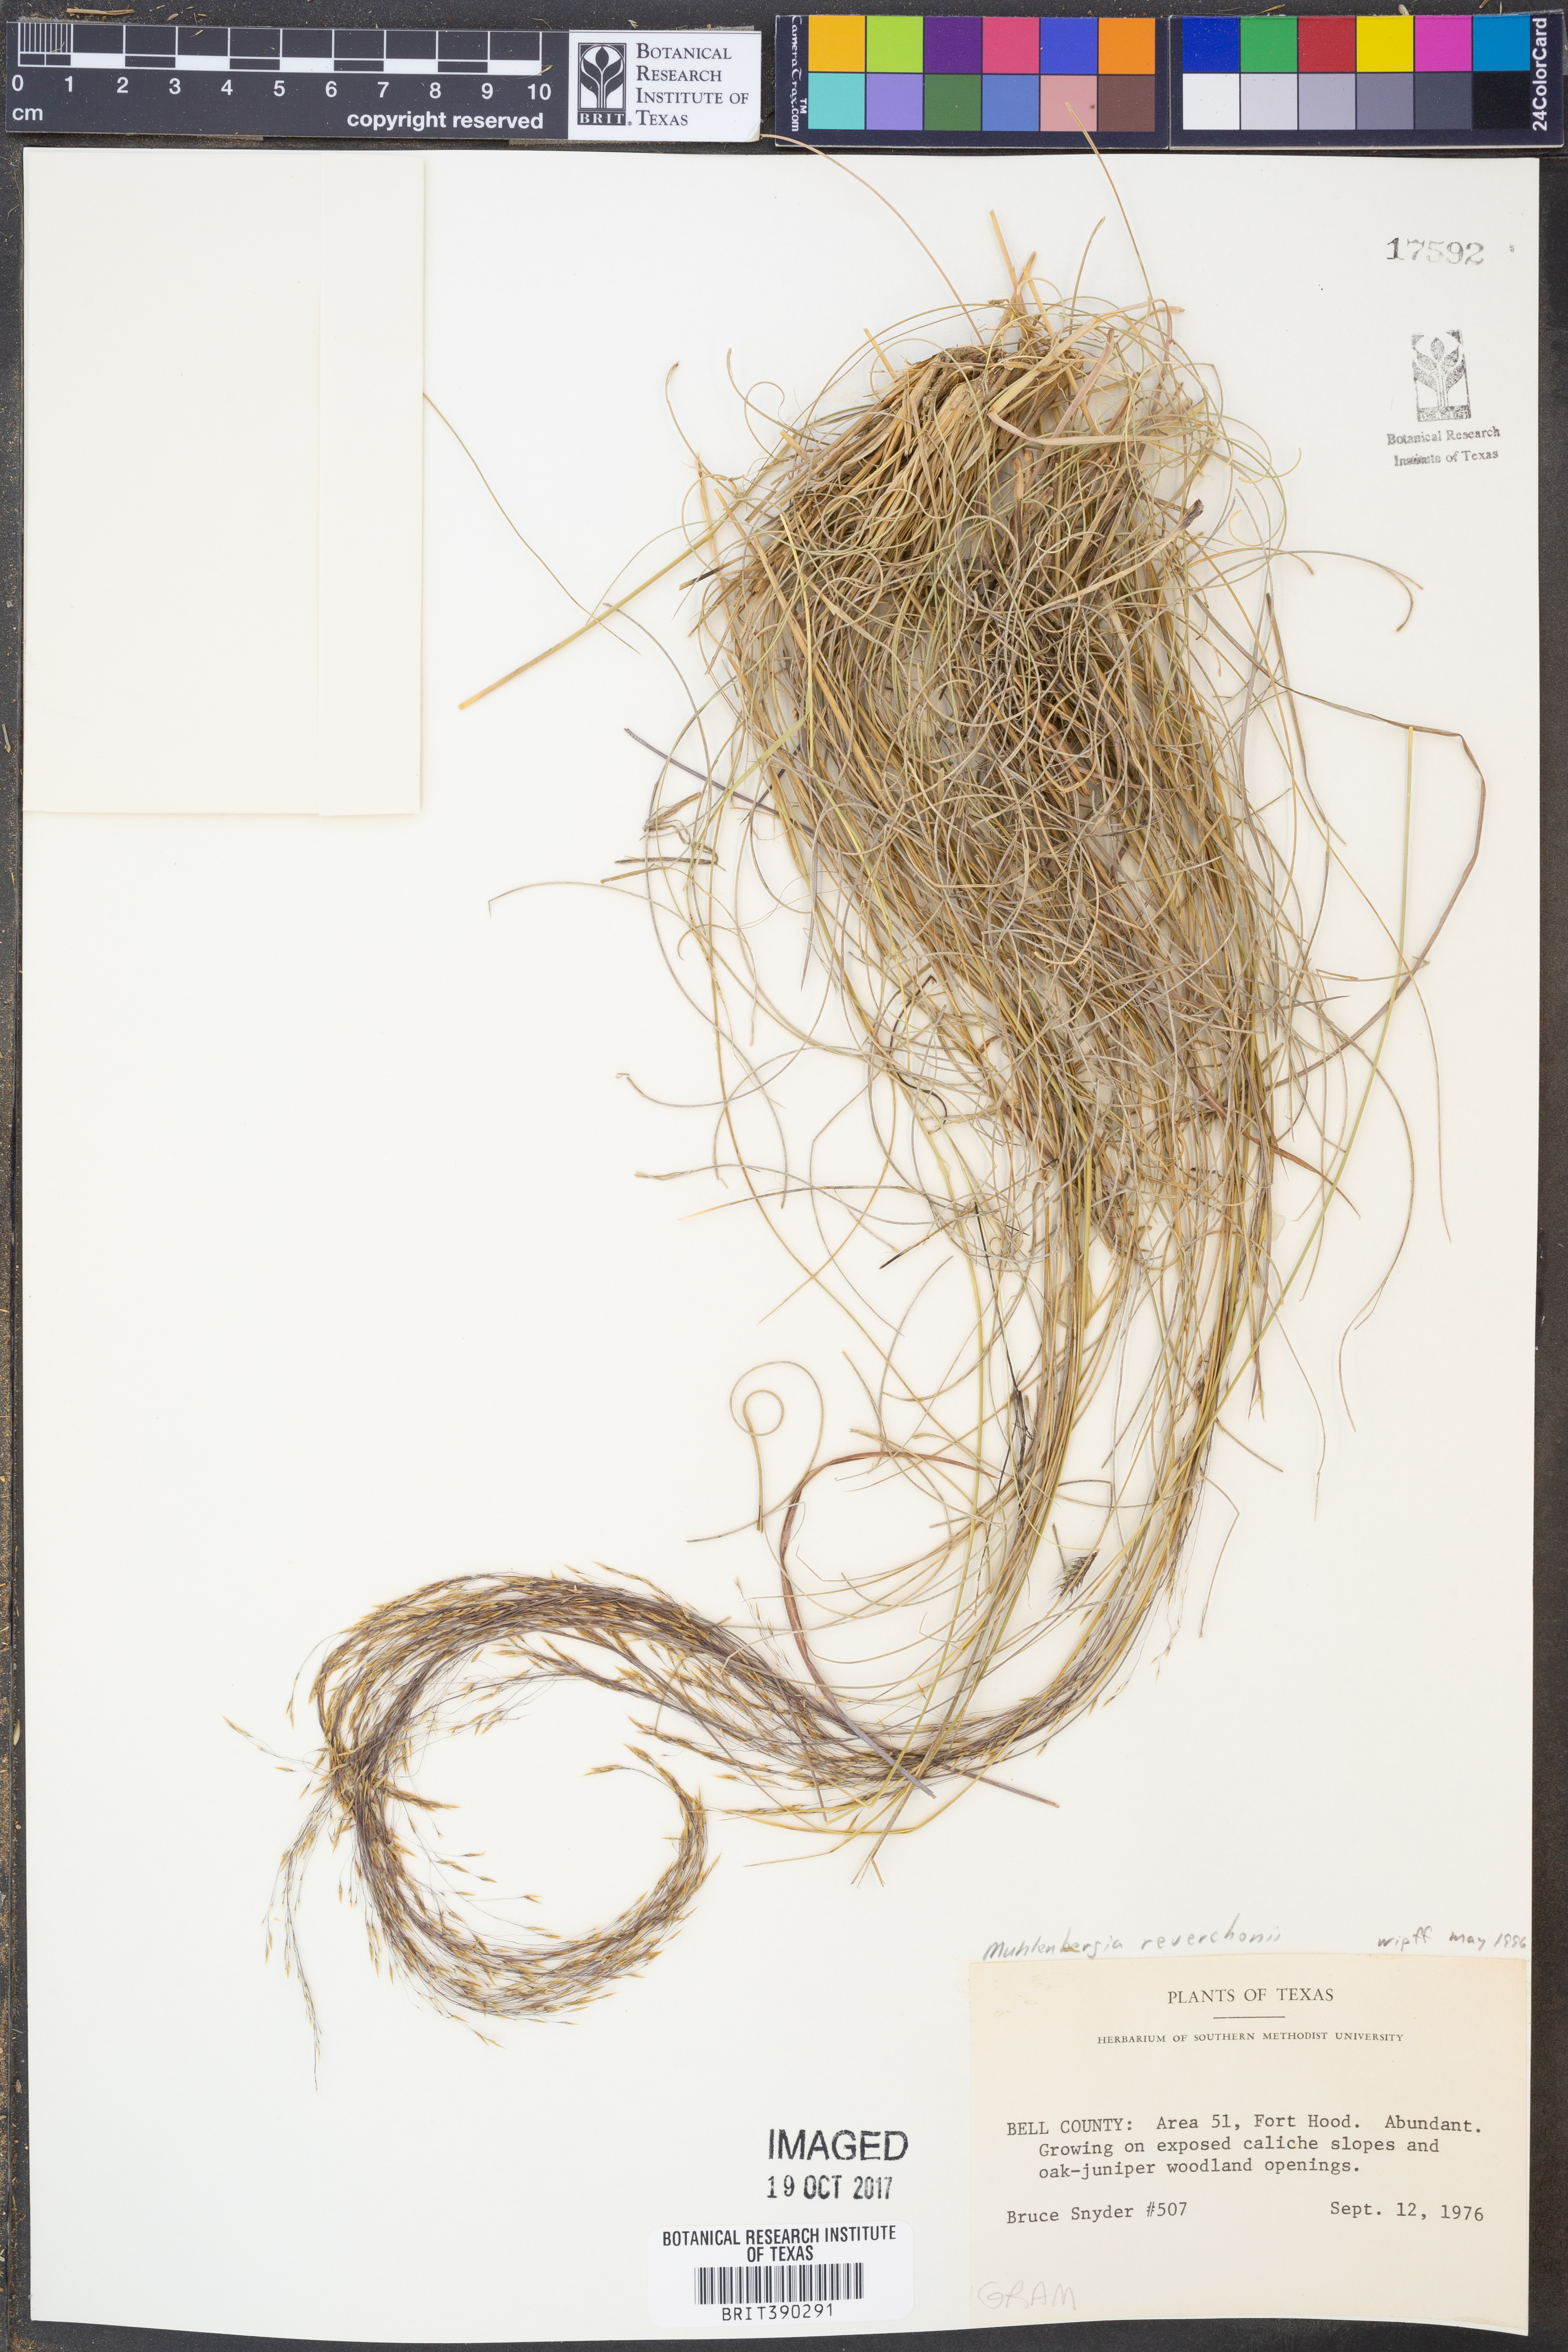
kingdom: Plantae
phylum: Tracheophyta
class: Liliopsida
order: Poales
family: Poaceae
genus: Muhlenbergia
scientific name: Muhlenbergia reverchonii
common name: Seep muhly
